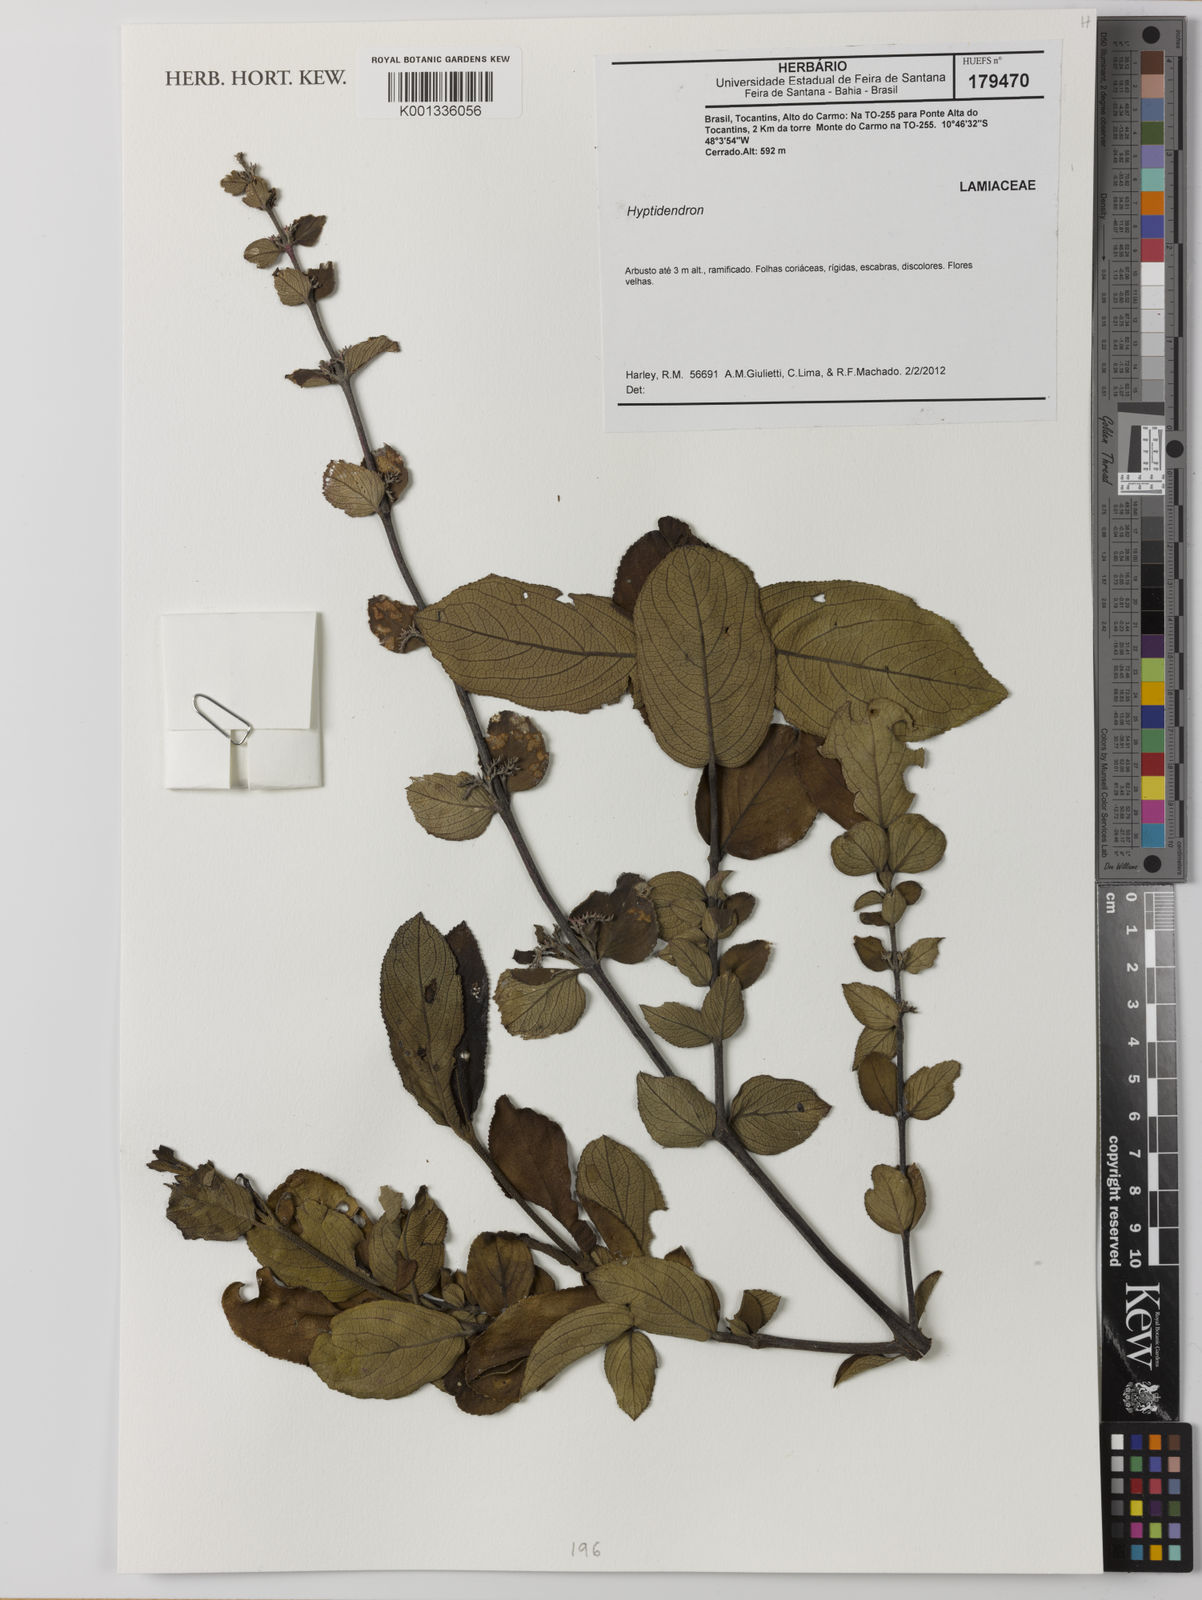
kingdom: Plantae
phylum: Tracheophyta
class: Magnoliopsida
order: Lamiales
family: Lamiaceae
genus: Hyptidendron
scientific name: Hyptidendron conspersum
